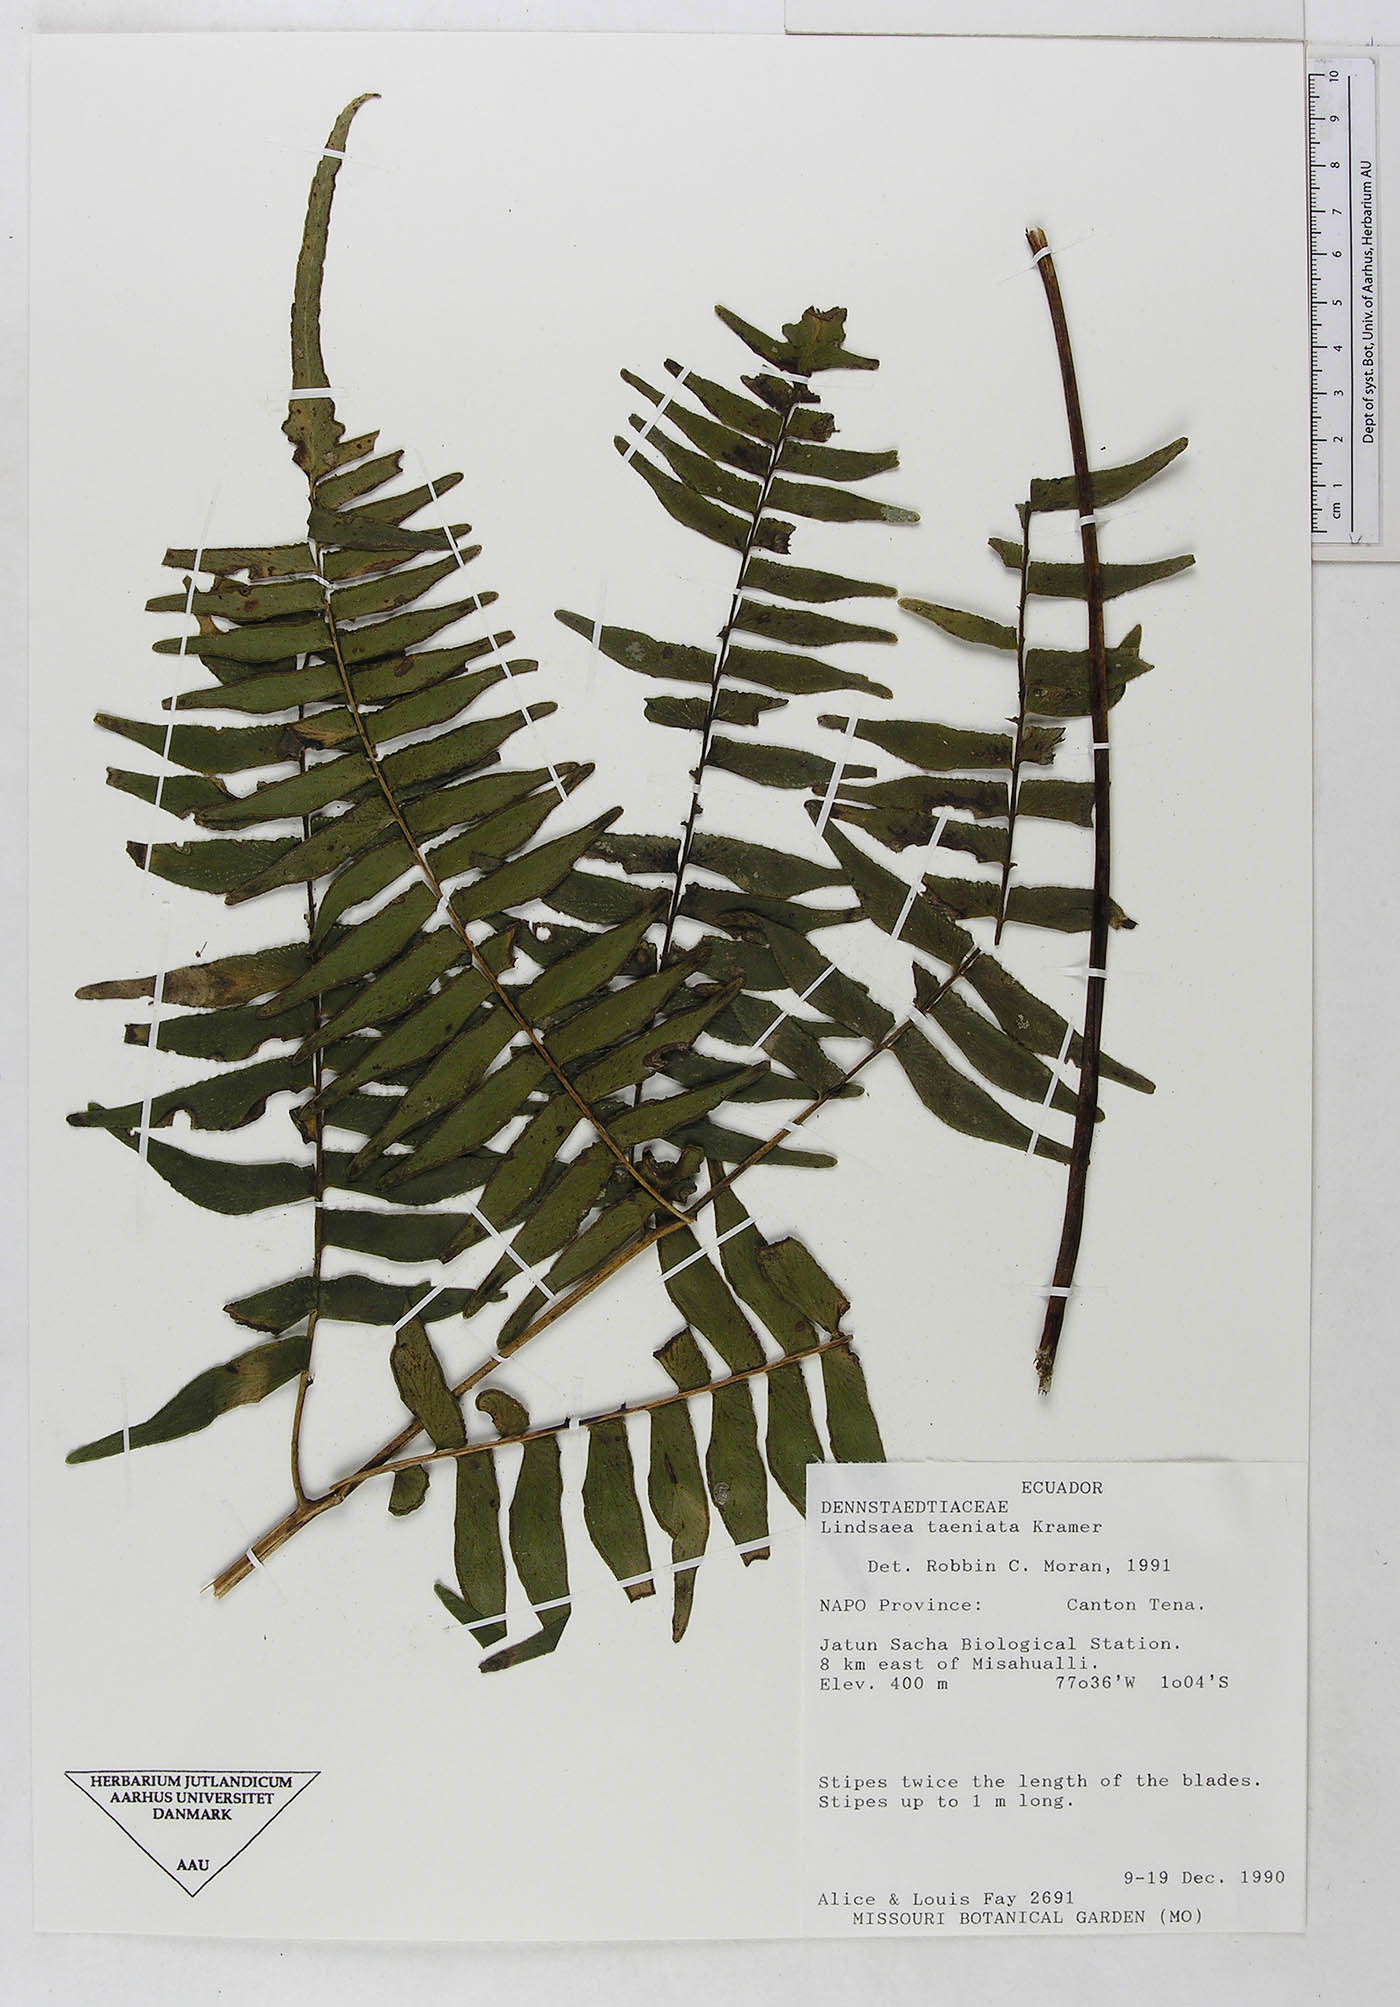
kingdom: Plantae
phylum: Tracheophyta
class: Polypodiopsida
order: Polypodiales
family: Lindsaeaceae
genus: Lindsaea
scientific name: Lindsaea taeniata
